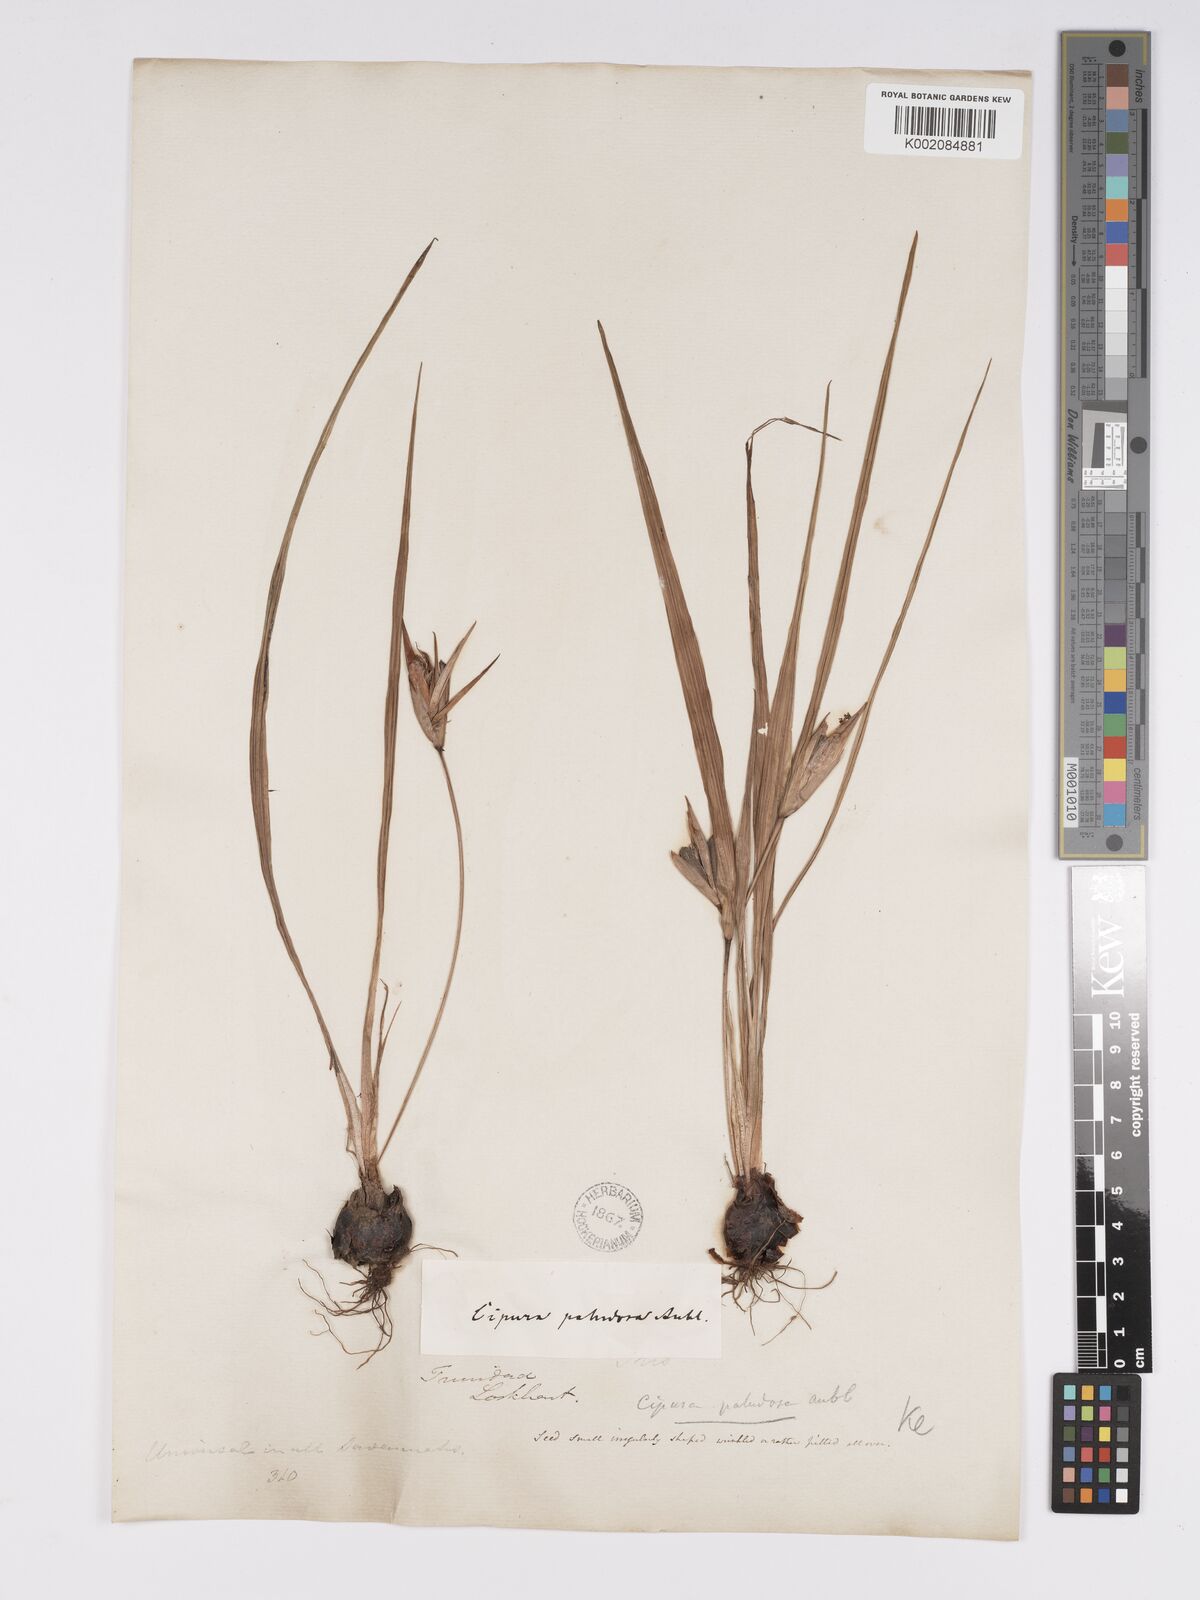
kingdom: Plantae
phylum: Tracheophyta
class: Liliopsida
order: Asparagales
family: Iridaceae
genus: Cipura
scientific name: Cipura paludosa
